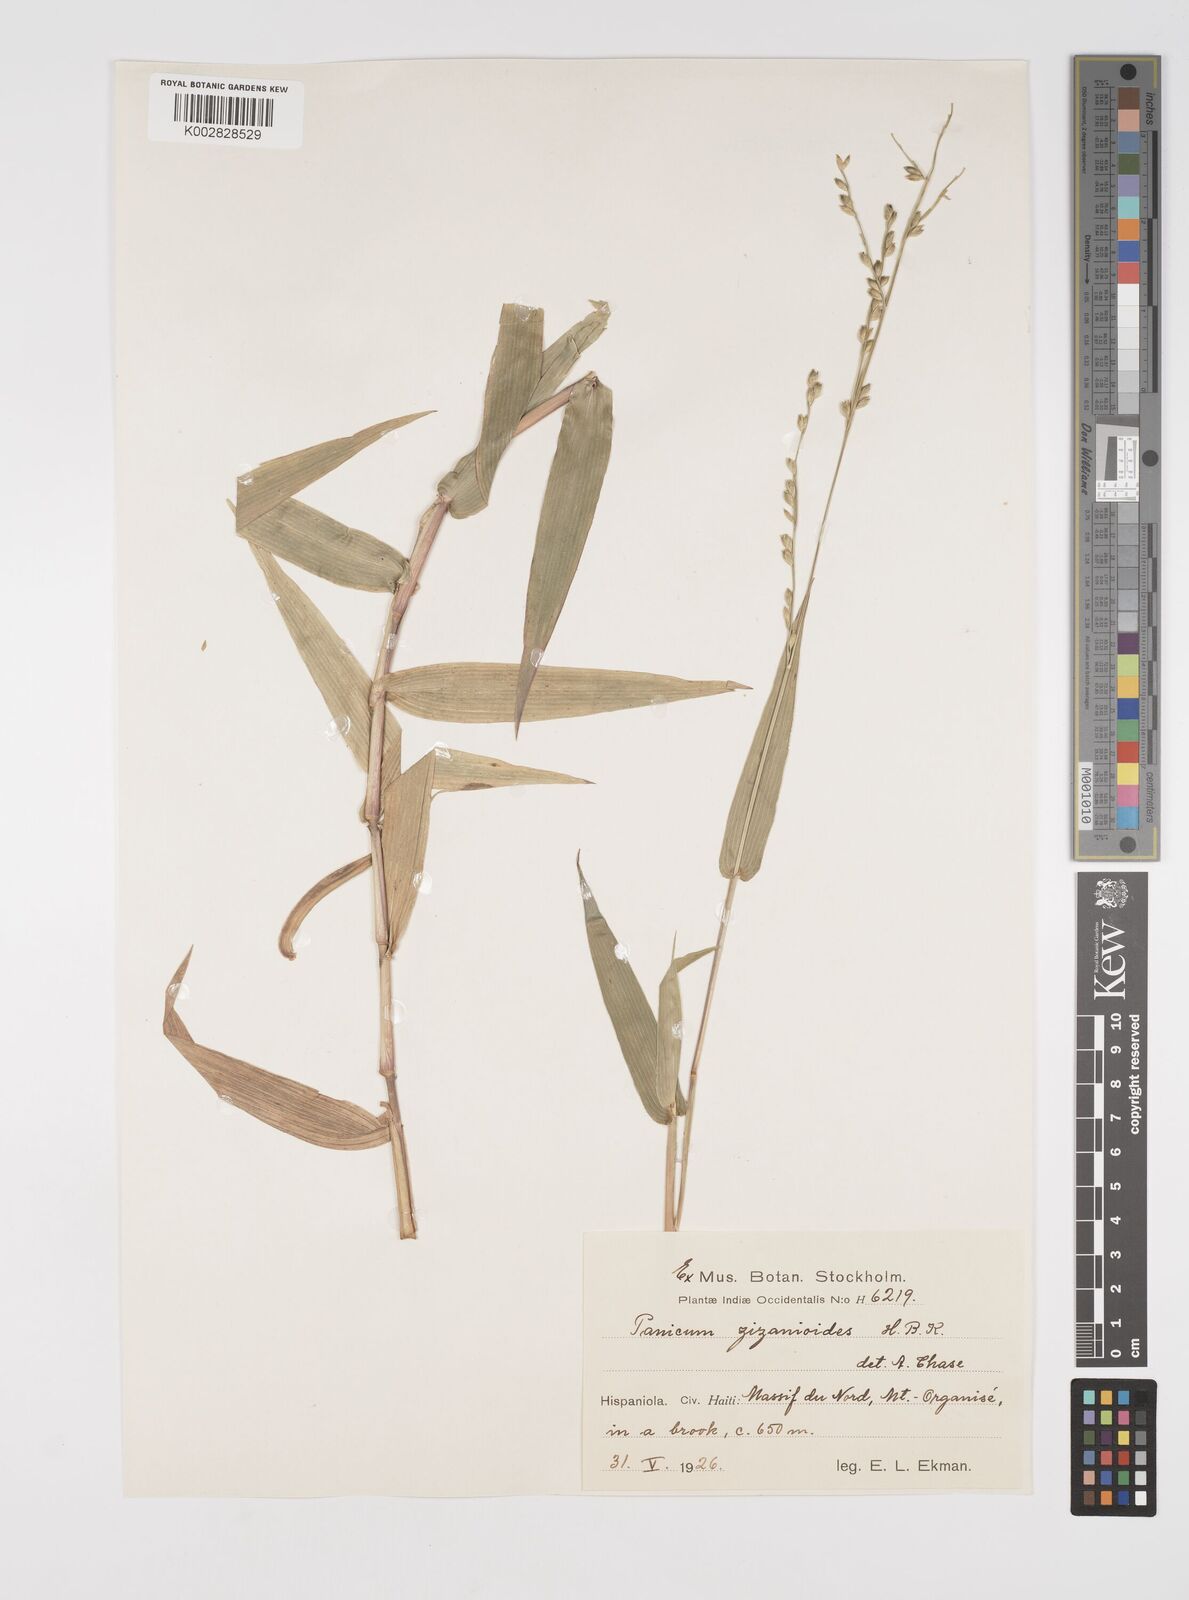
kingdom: Plantae
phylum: Tracheophyta
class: Liliopsida
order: Poales
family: Poaceae
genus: Acroceras
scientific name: Acroceras zizanioides
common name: Oat grass
